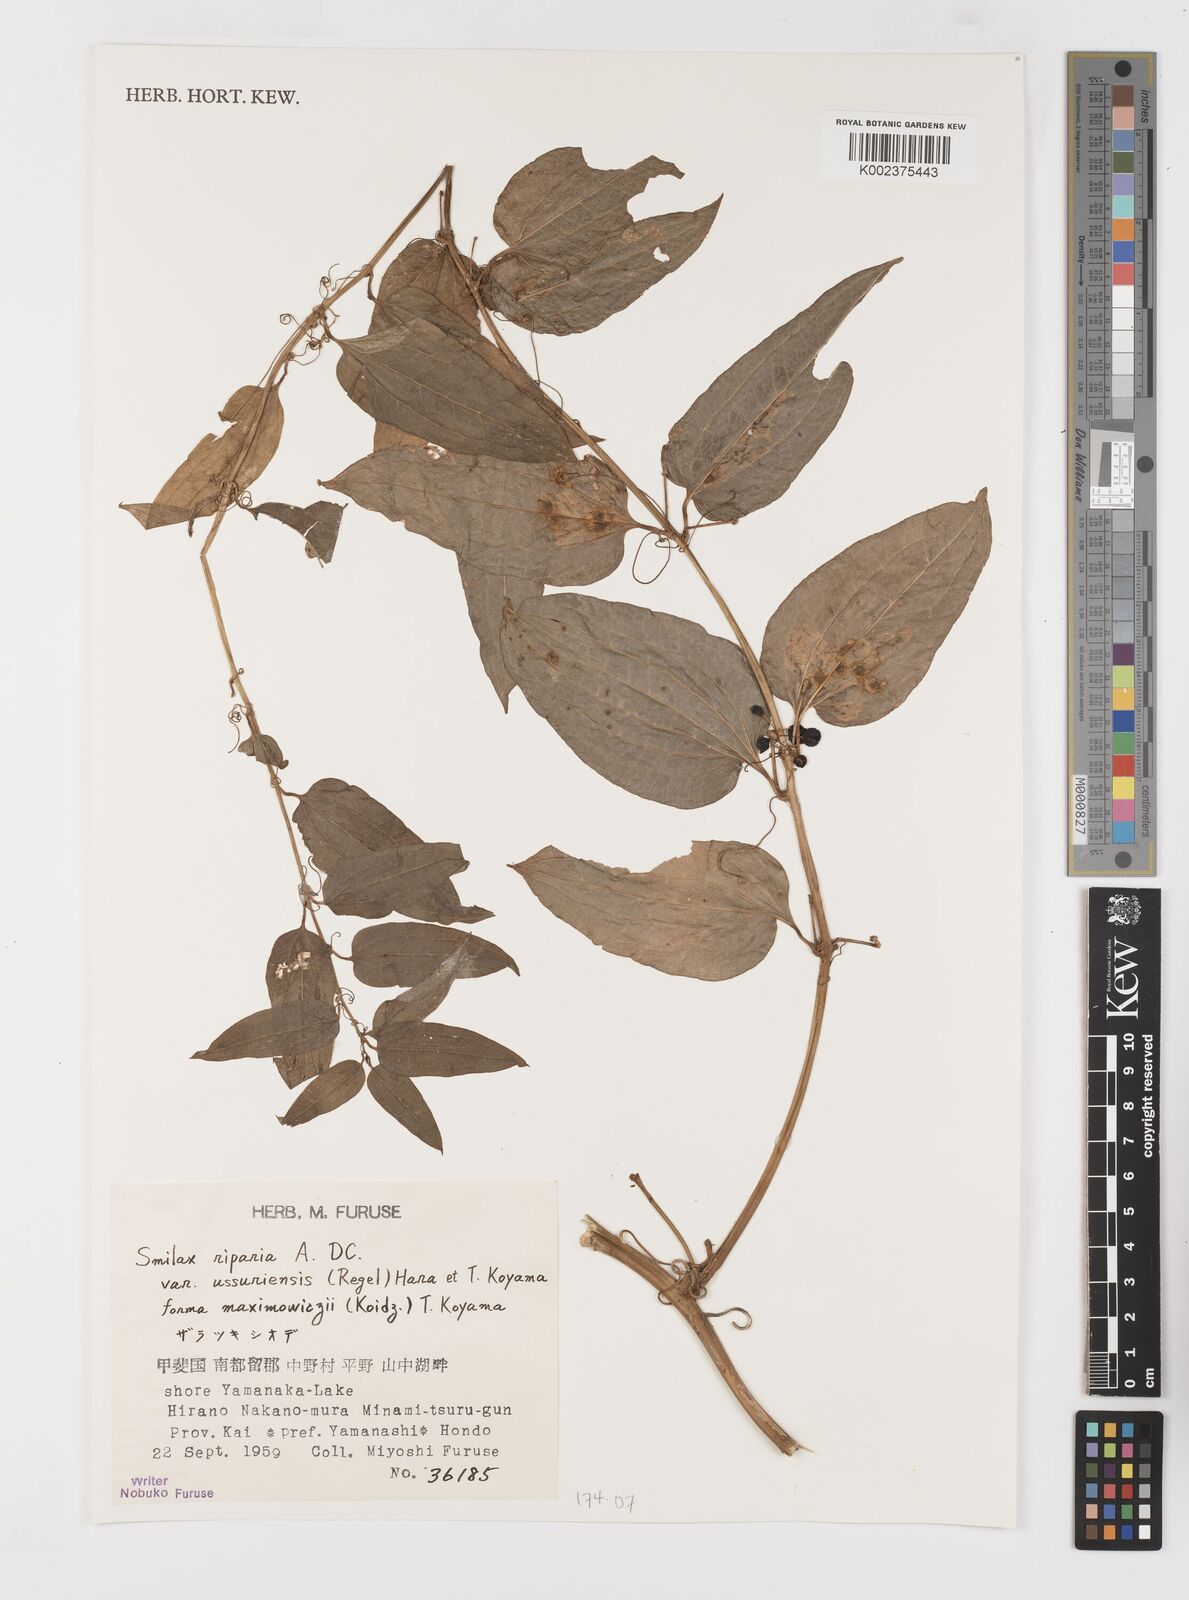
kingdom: Plantae
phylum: Tracheophyta
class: Liliopsida
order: Liliales
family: Smilacaceae
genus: Smilax
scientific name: Smilax riparia
